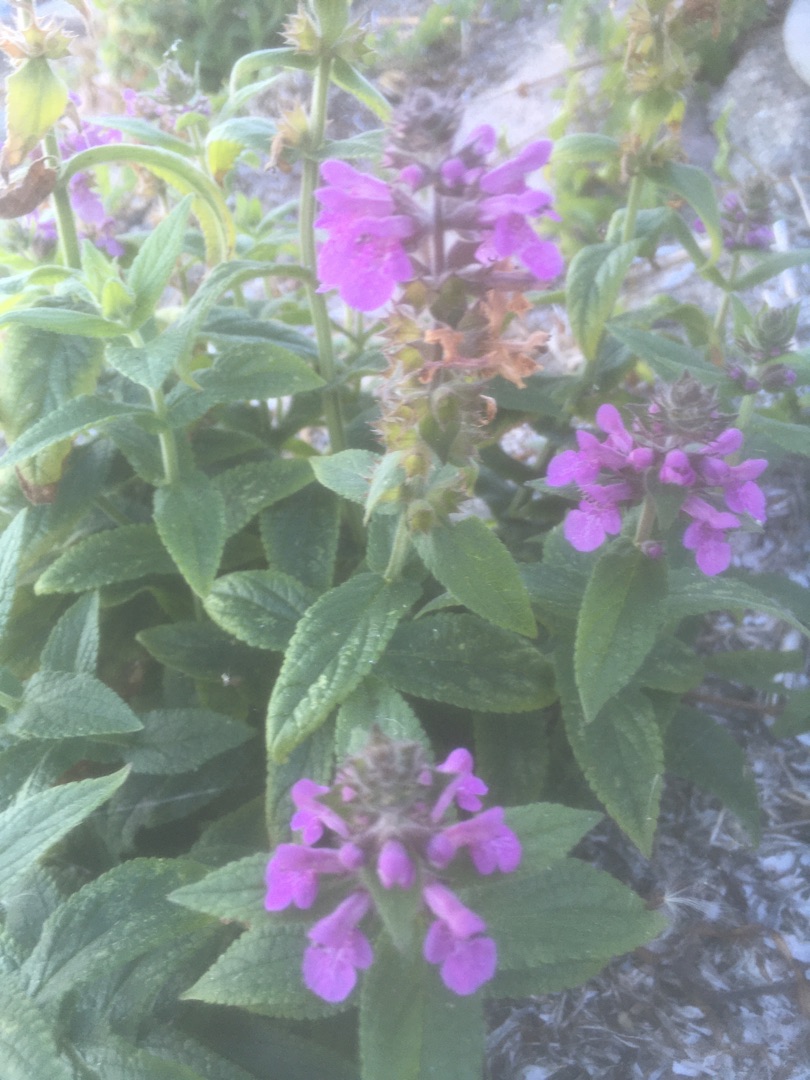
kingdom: Plantae
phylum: Tracheophyta
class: Magnoliopsida
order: Lamiales
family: Lamiaceae
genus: Stachys
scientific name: Stachys palustris
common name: Kær-galtetand
